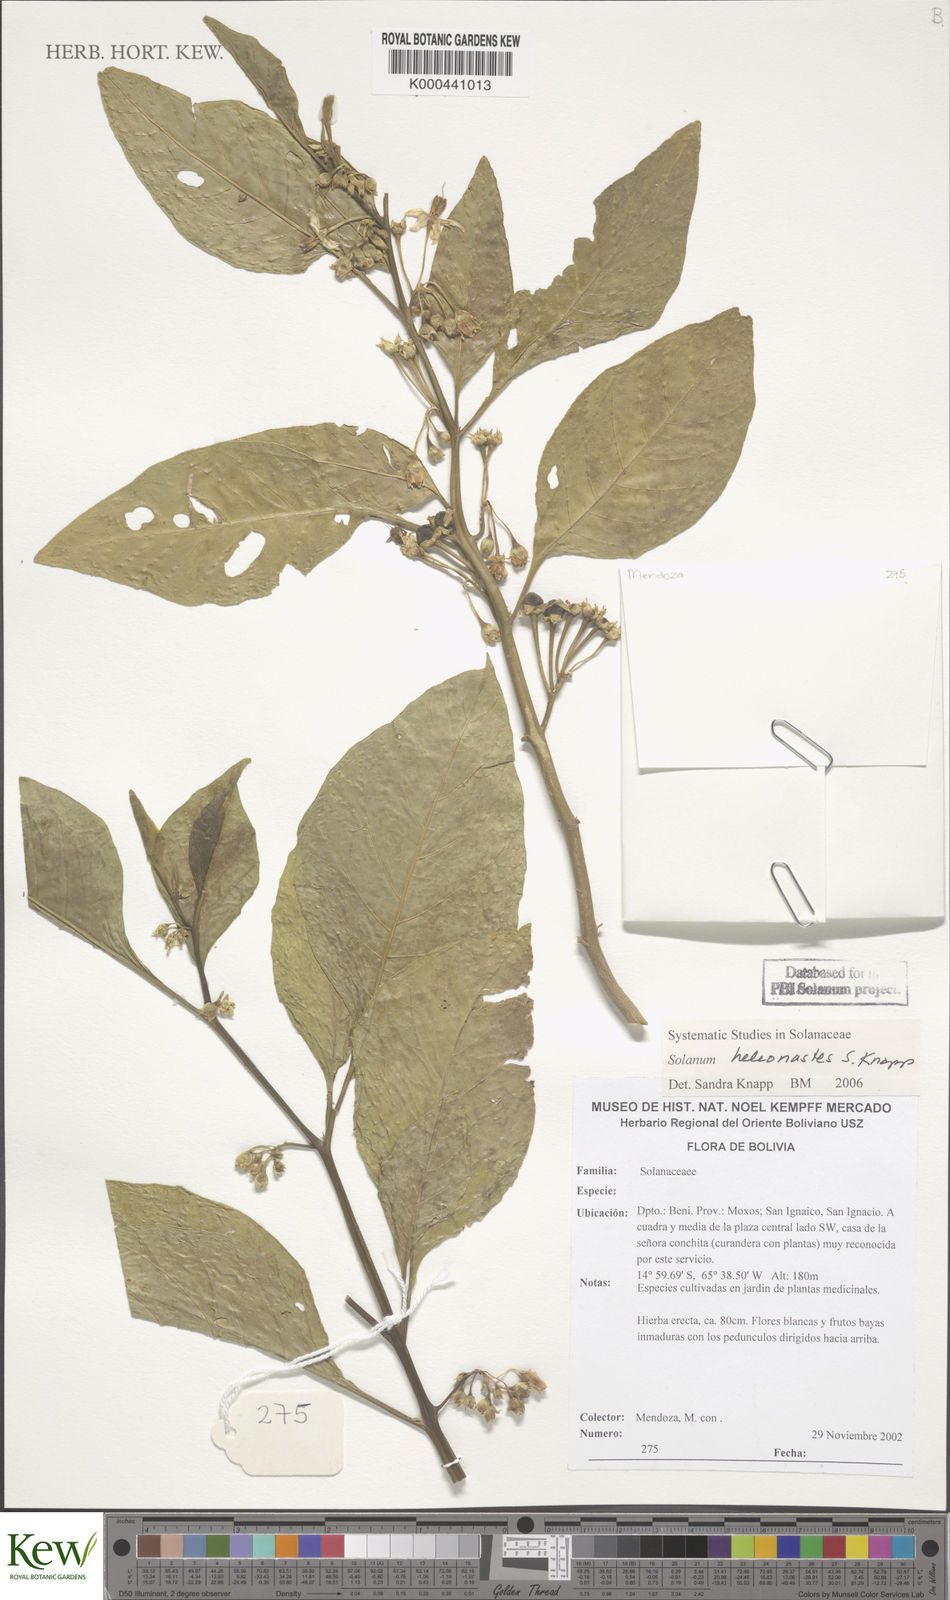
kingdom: Plantae
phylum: Tracheophyta
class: Magnoliopsida
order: Solanales
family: Solanaceae
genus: Solanum
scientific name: Solanum heleonastes
